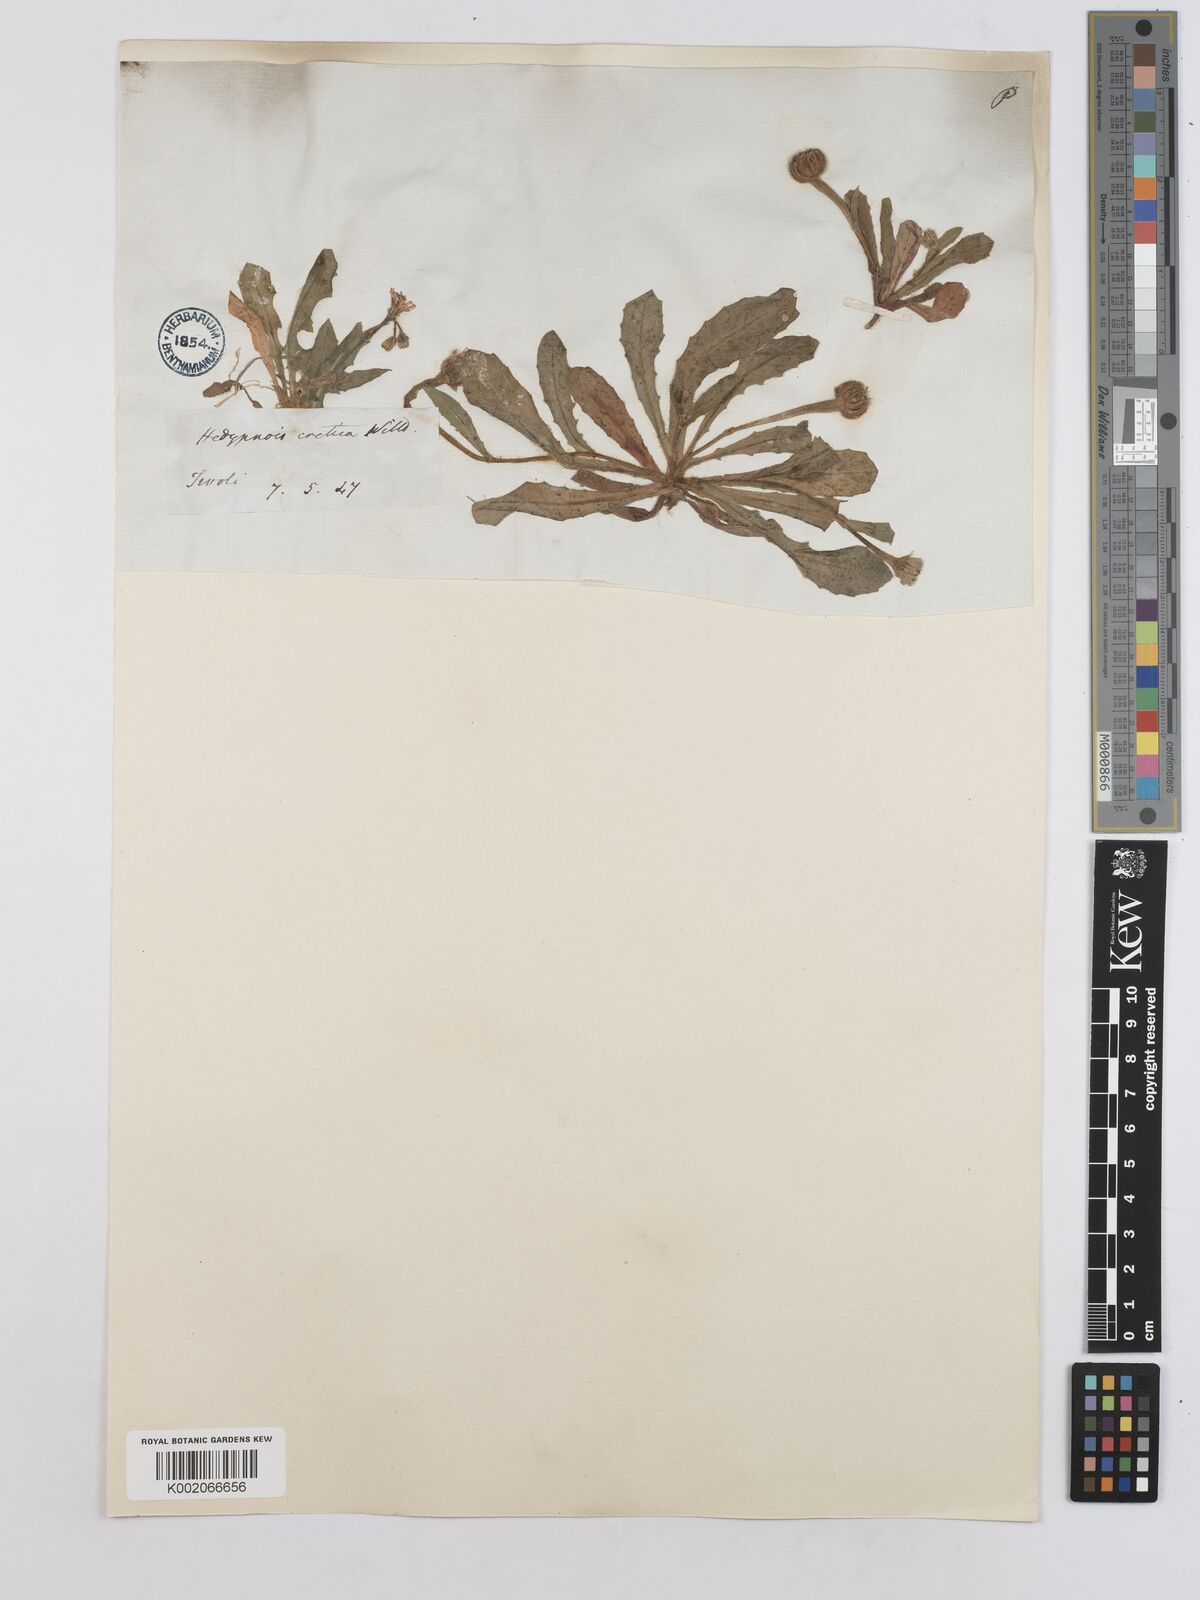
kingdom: Plantae
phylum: Tracheophyta
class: Magnoliopsida
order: Asterales
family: Asteraceae
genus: Hedypnois
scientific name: Hedypnois rhagadioloides
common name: Cretan weed
